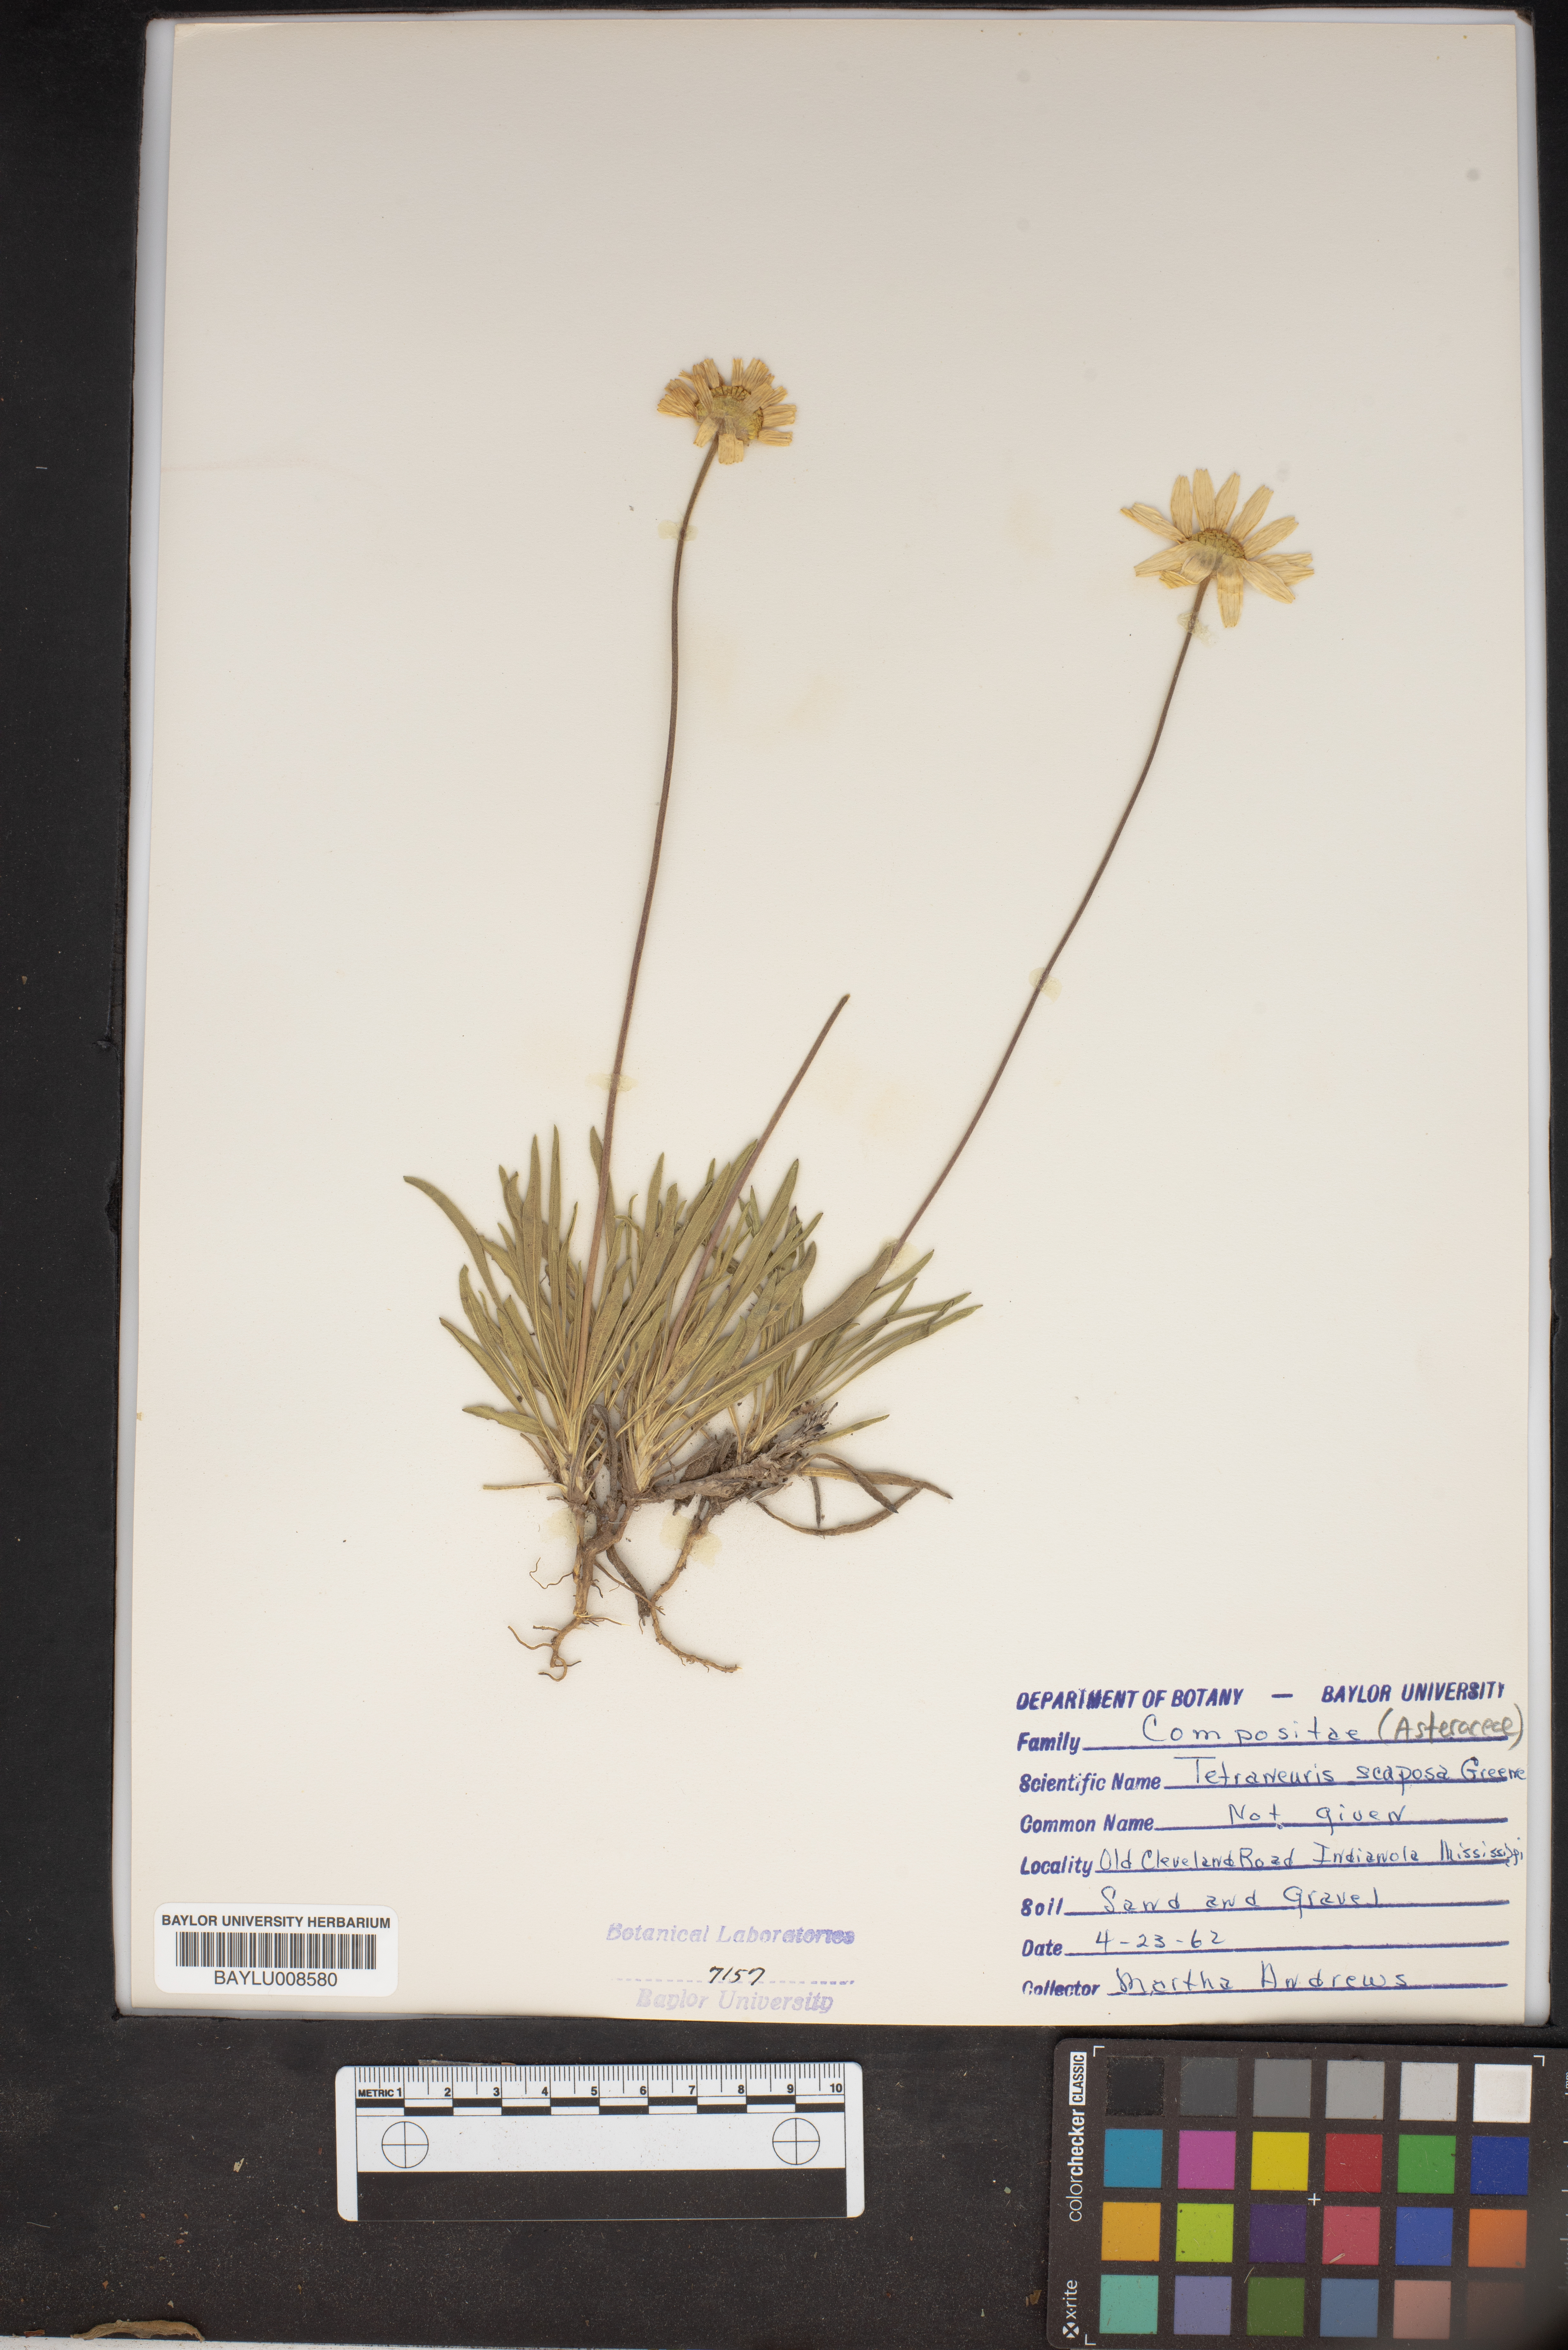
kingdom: Plantae
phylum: Tracheophyta
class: Magnoliopsida
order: Asterales
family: Asteraceae
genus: Tetraneuris
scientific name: Tetraneuris scaposa
